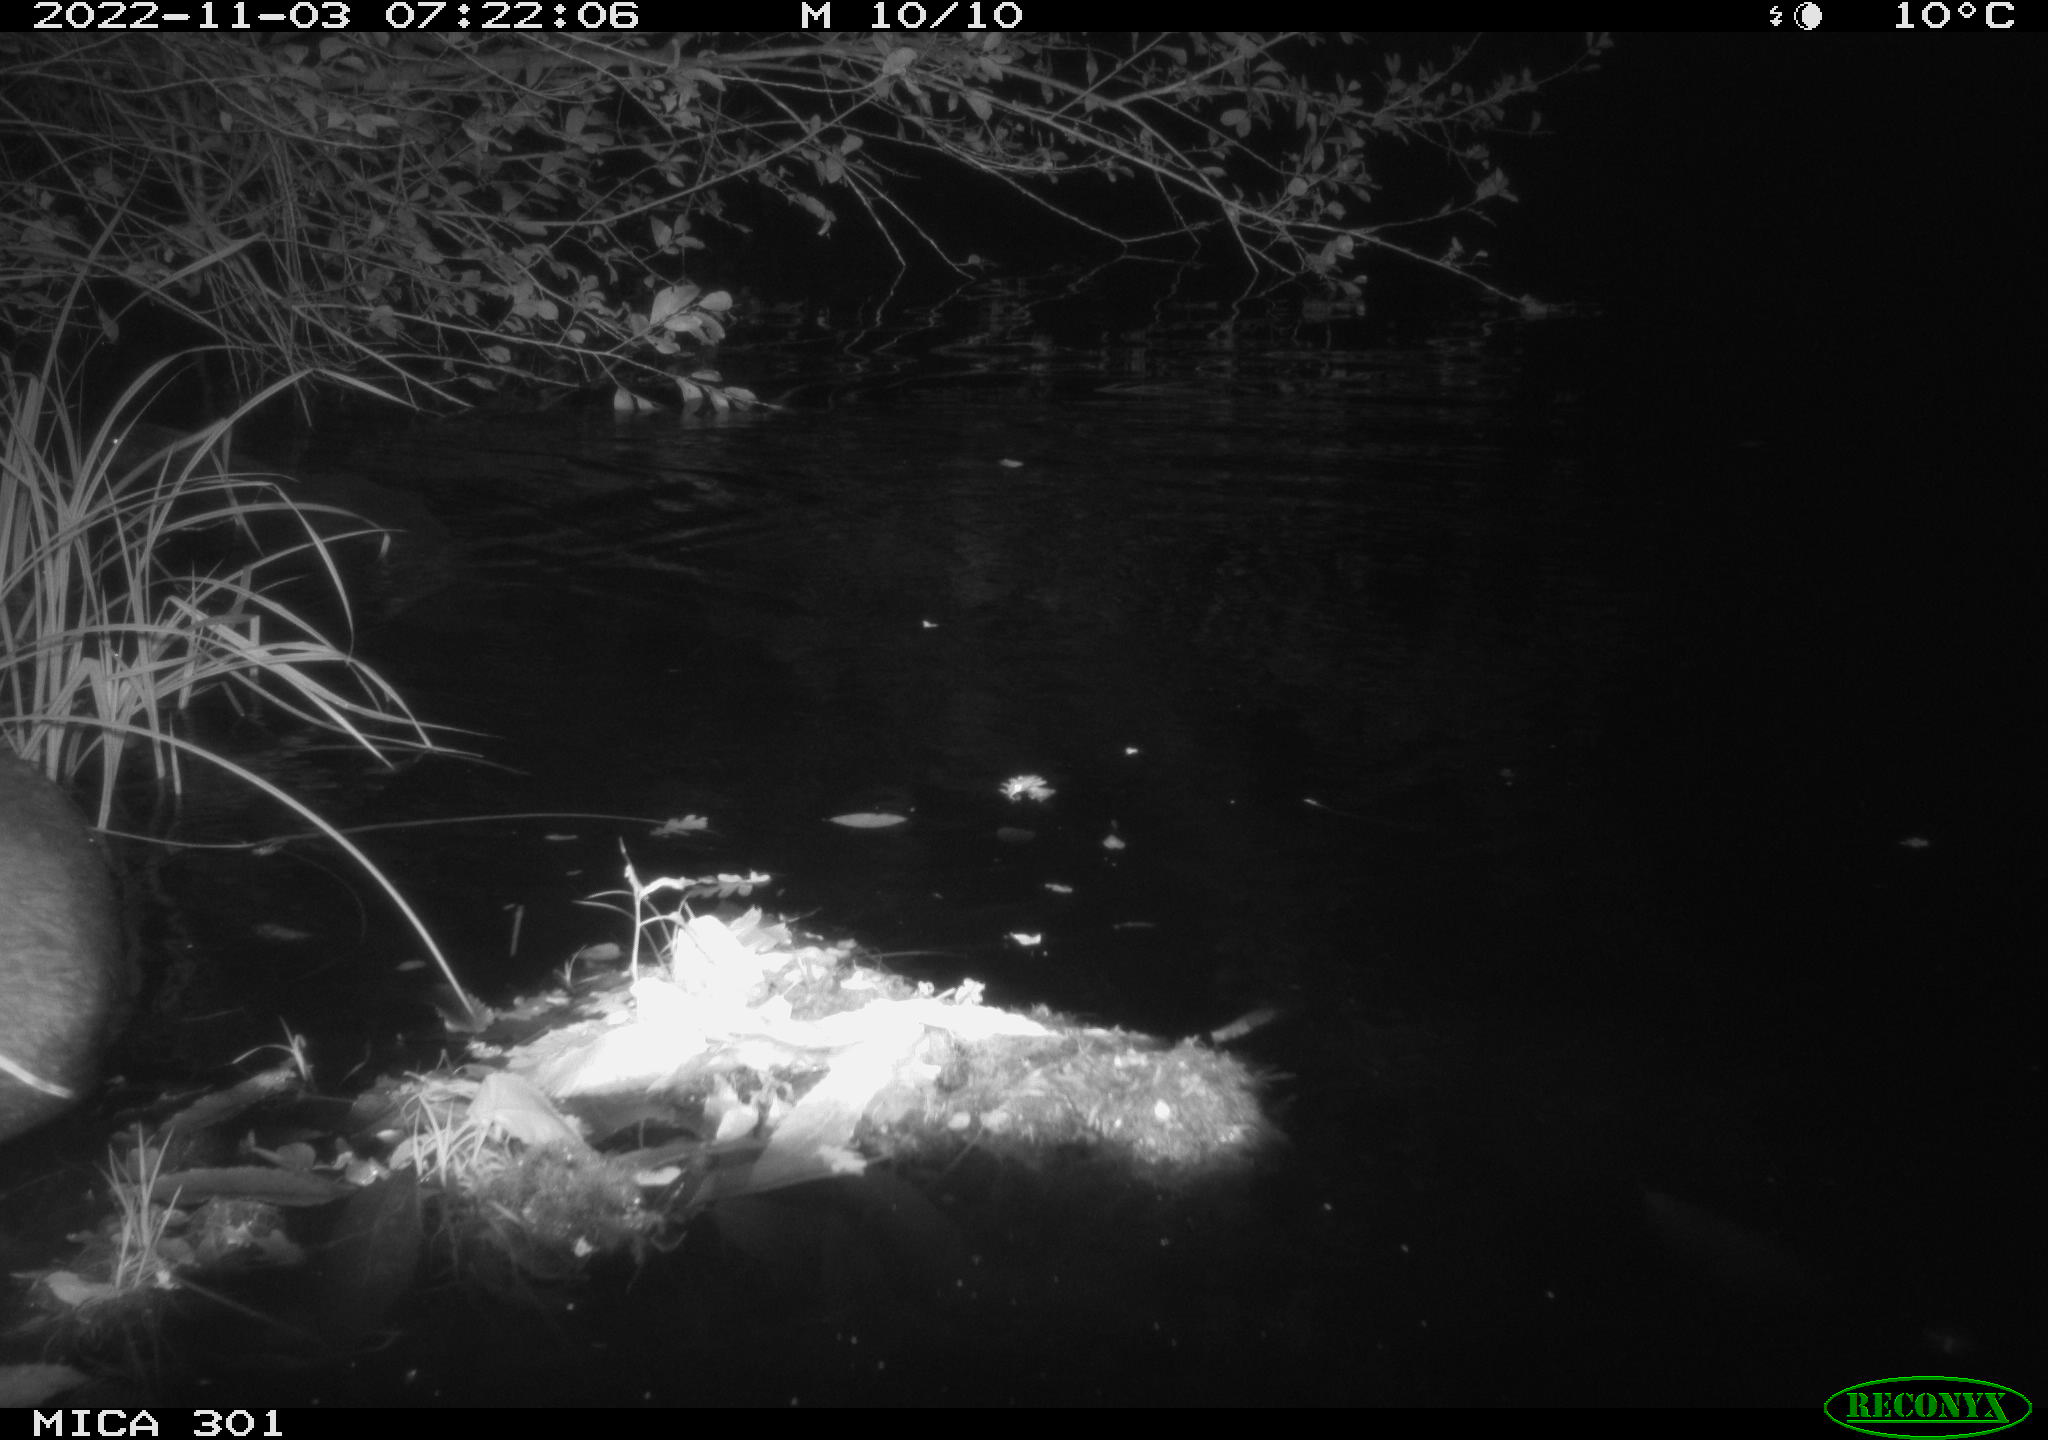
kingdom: Animalia
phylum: Chordata
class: Mammalia
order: Rodentia
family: Castoridae
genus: Castor
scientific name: Castor fiber
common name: Eurasian beaver
